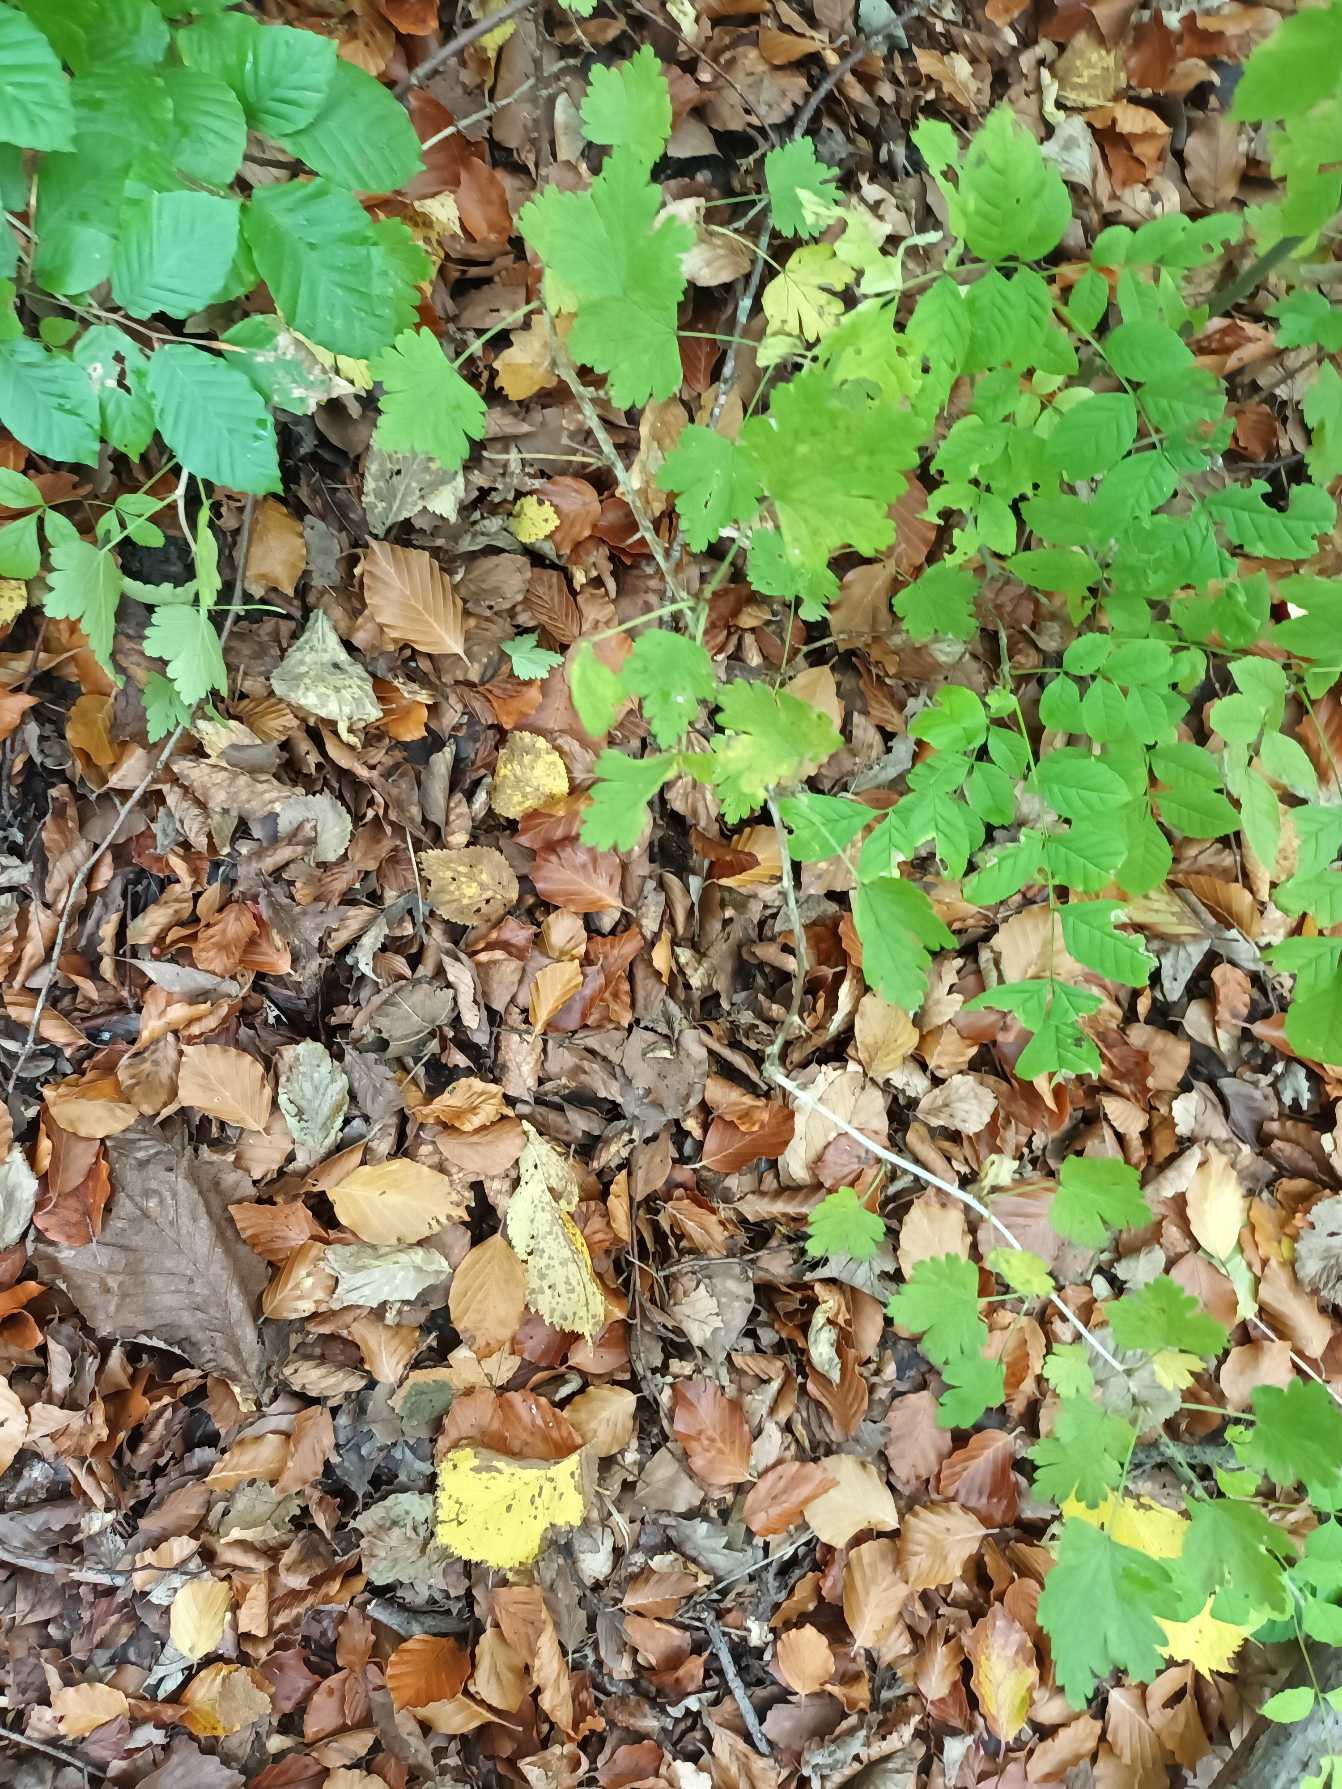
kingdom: Plantae
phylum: Tracheophyta
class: Magnoliopsida
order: Saxifragales
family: Grossulariaceae
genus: Ribes
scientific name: Ribes uva-crispa
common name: Stikkelsbær
